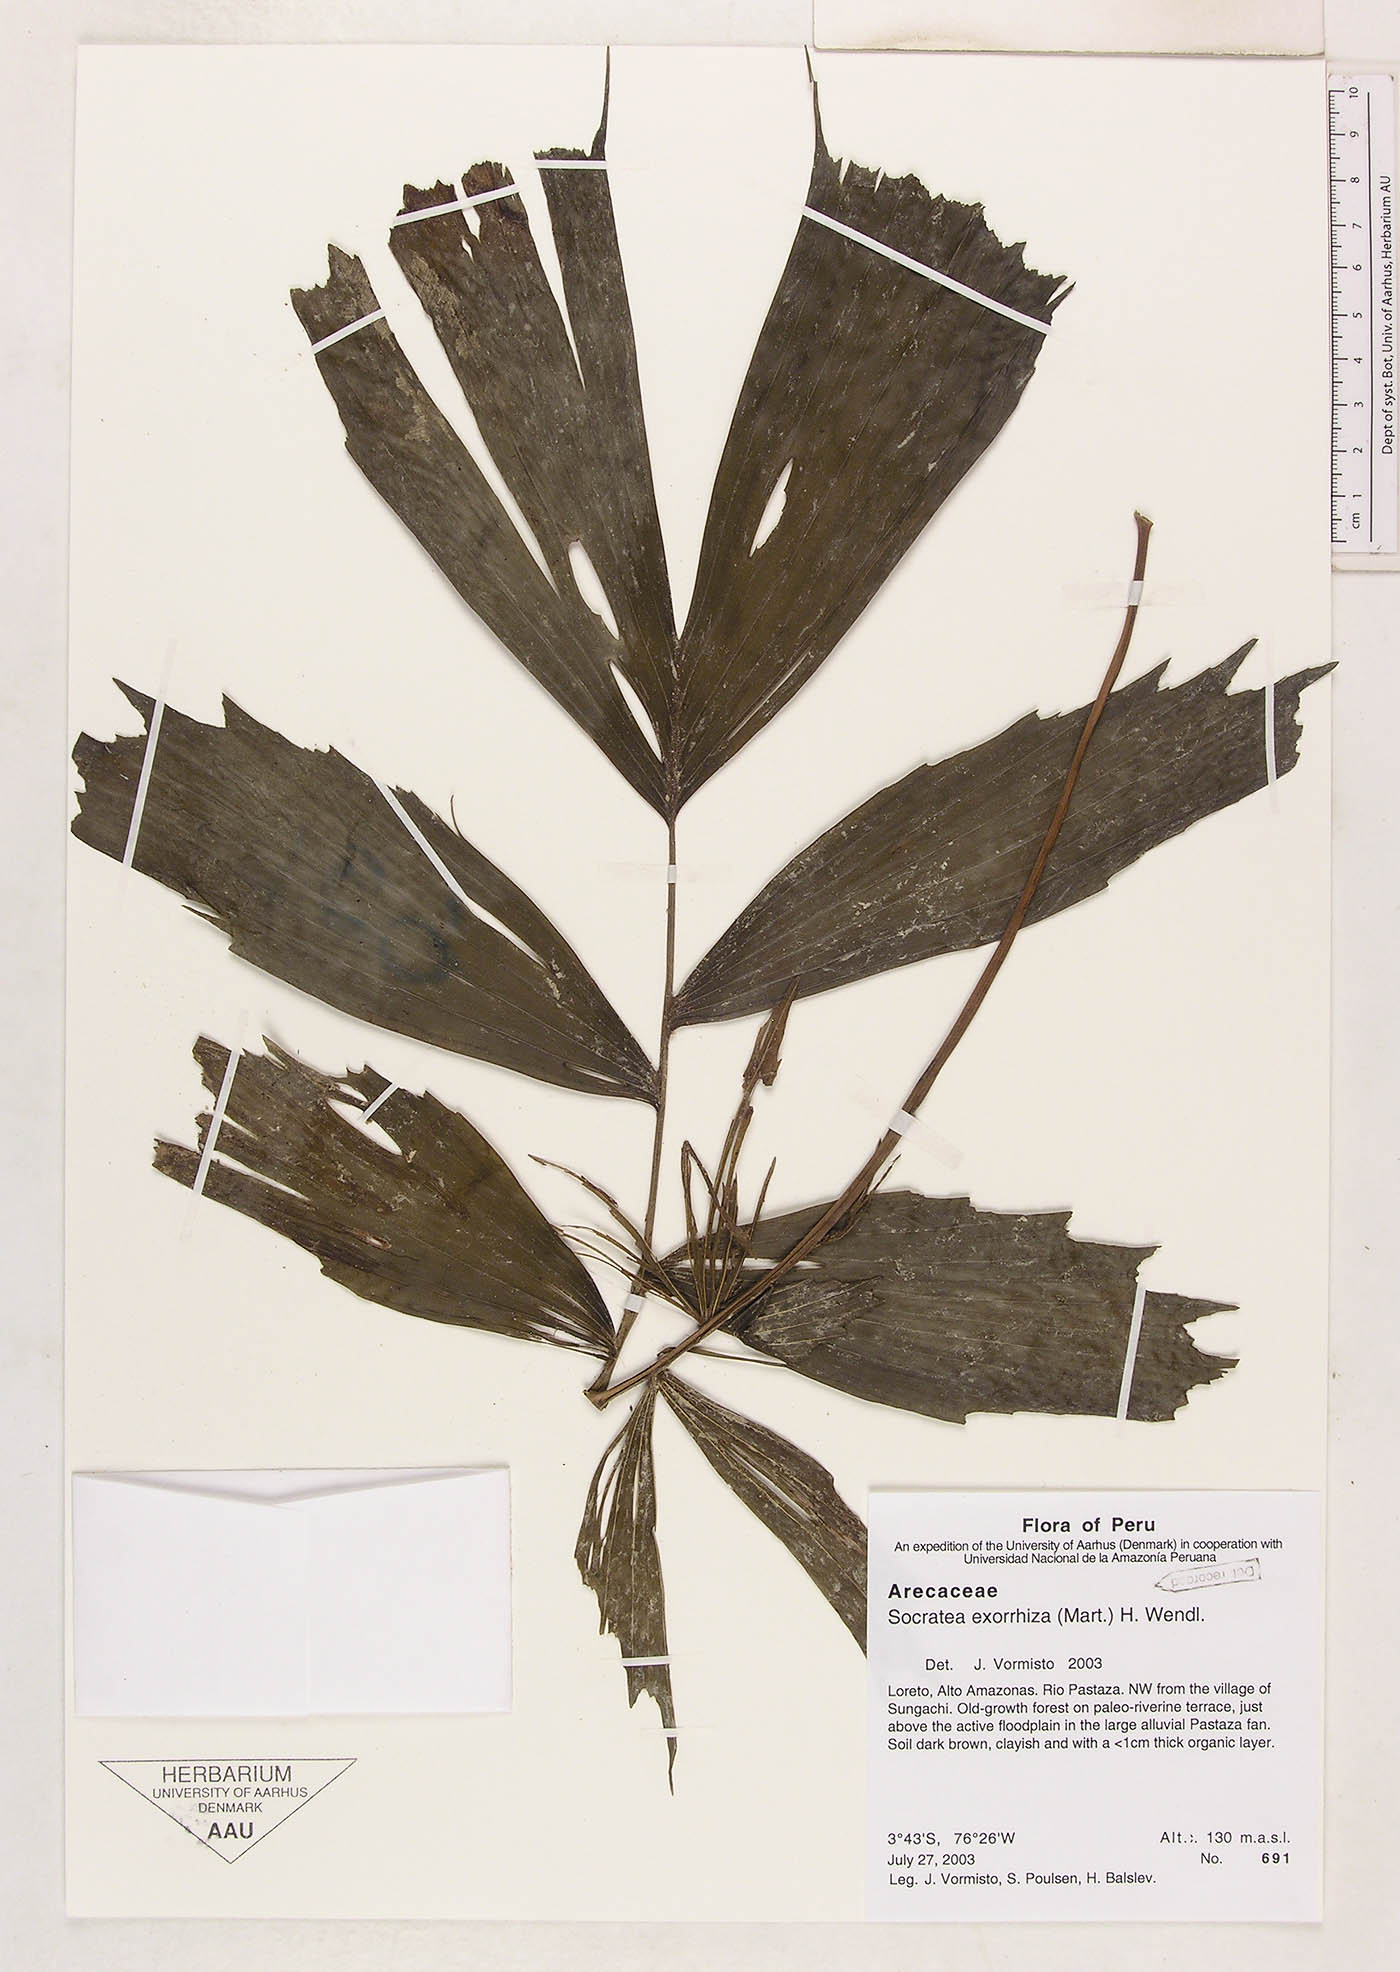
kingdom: Plantae
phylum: Tracheophyta
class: Liliopsida
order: Arecales
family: Arecaceae
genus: Socratea
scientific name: Socratea exorrhiza
